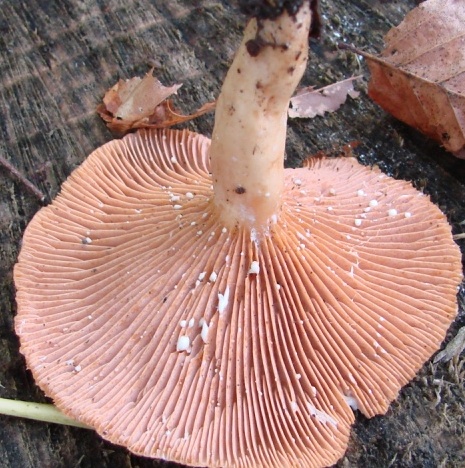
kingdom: Fungi
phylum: Basidiomycota
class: Agaricomycetes
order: Russulales
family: Russulaceae
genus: Lactarius
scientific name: Lactarius pyrogalus
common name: hassel-mælkehat
